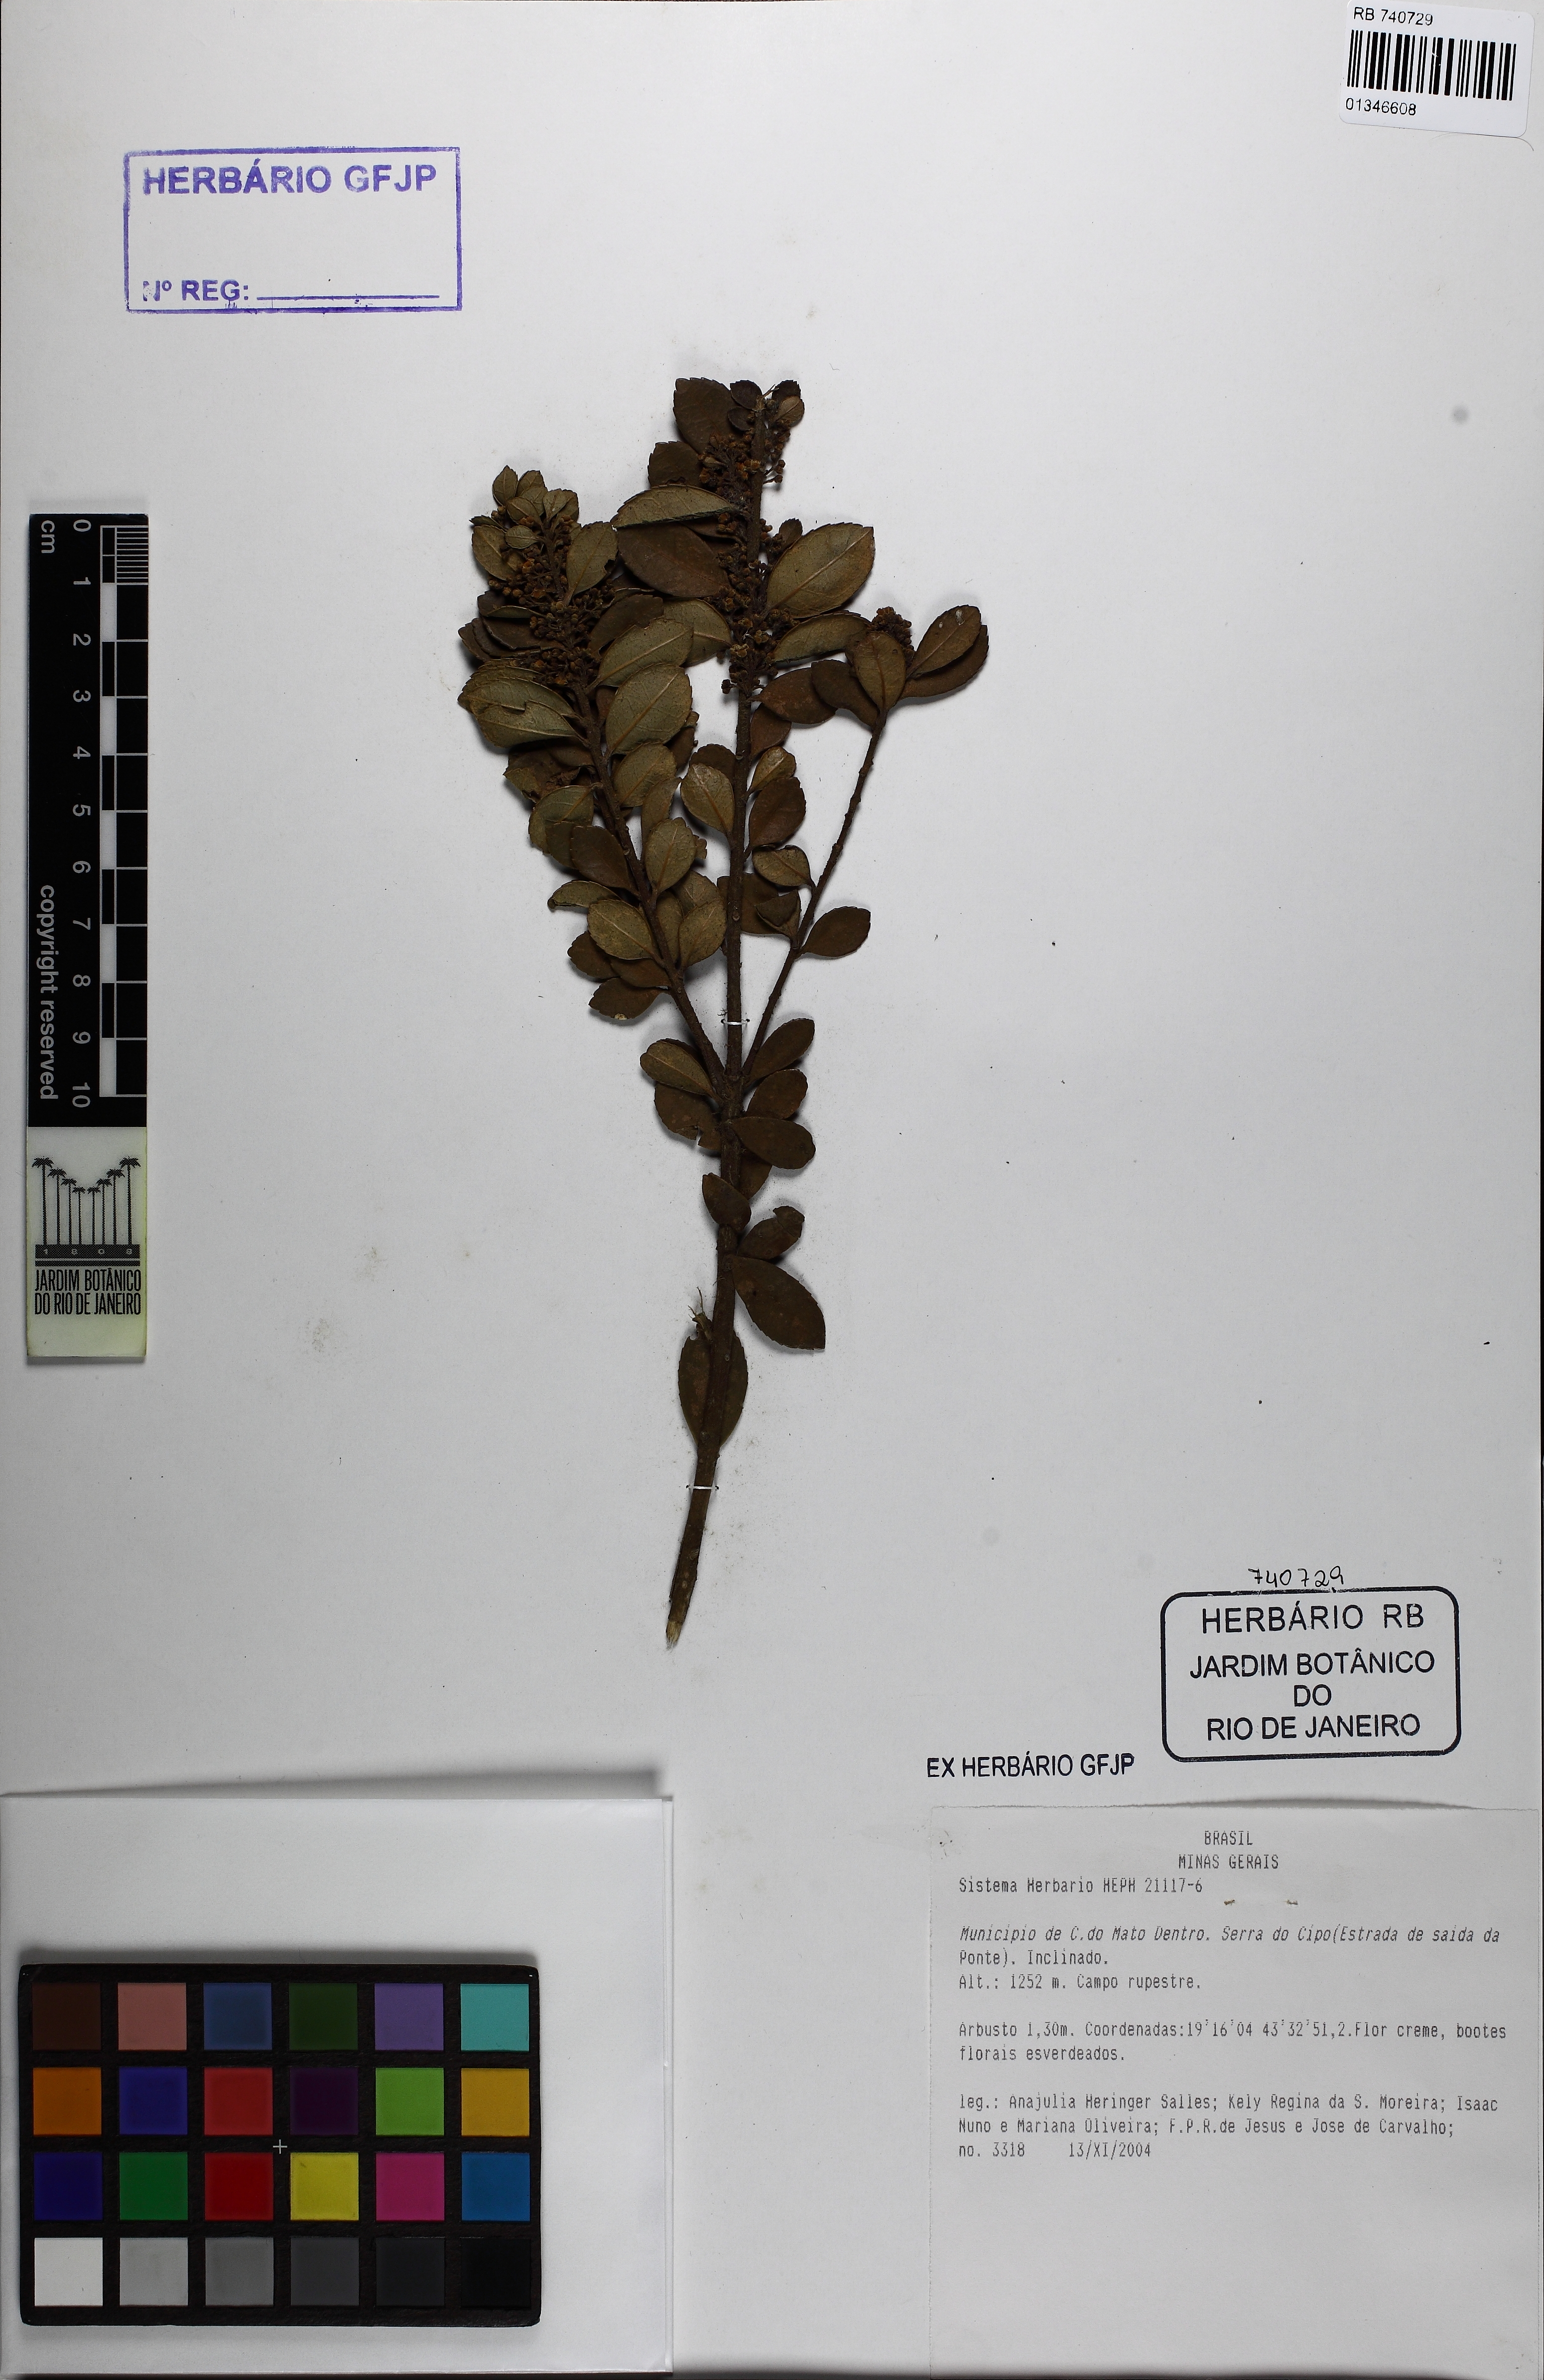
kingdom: Plantae
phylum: Tracheophyta
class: Magnoliopsida
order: Aquifoliales
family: Aquifoliaceae
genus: Ilex
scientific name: Ilex
